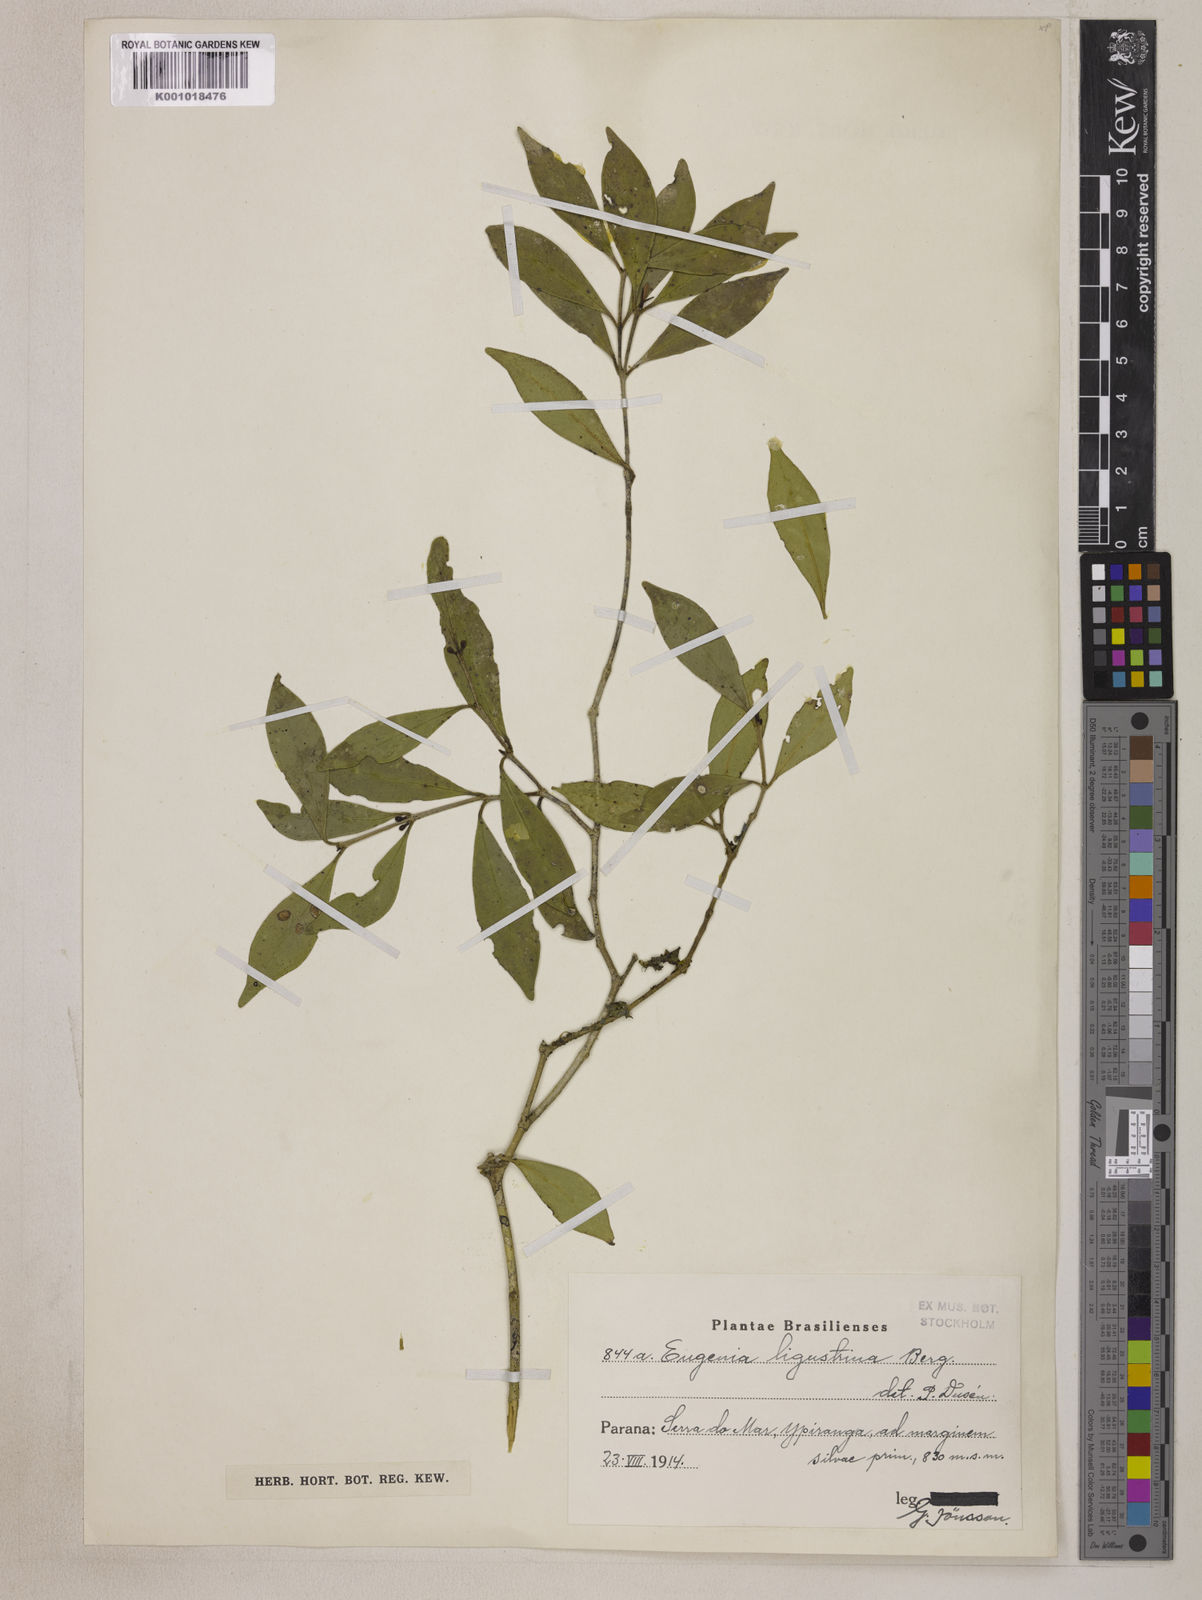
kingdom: Plantae
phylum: Tracheophyta
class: Magnoliopsida
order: Myrtales
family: Myrtaceae
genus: Eugenia
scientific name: Eugenia ligustrina
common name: Privet stopper
